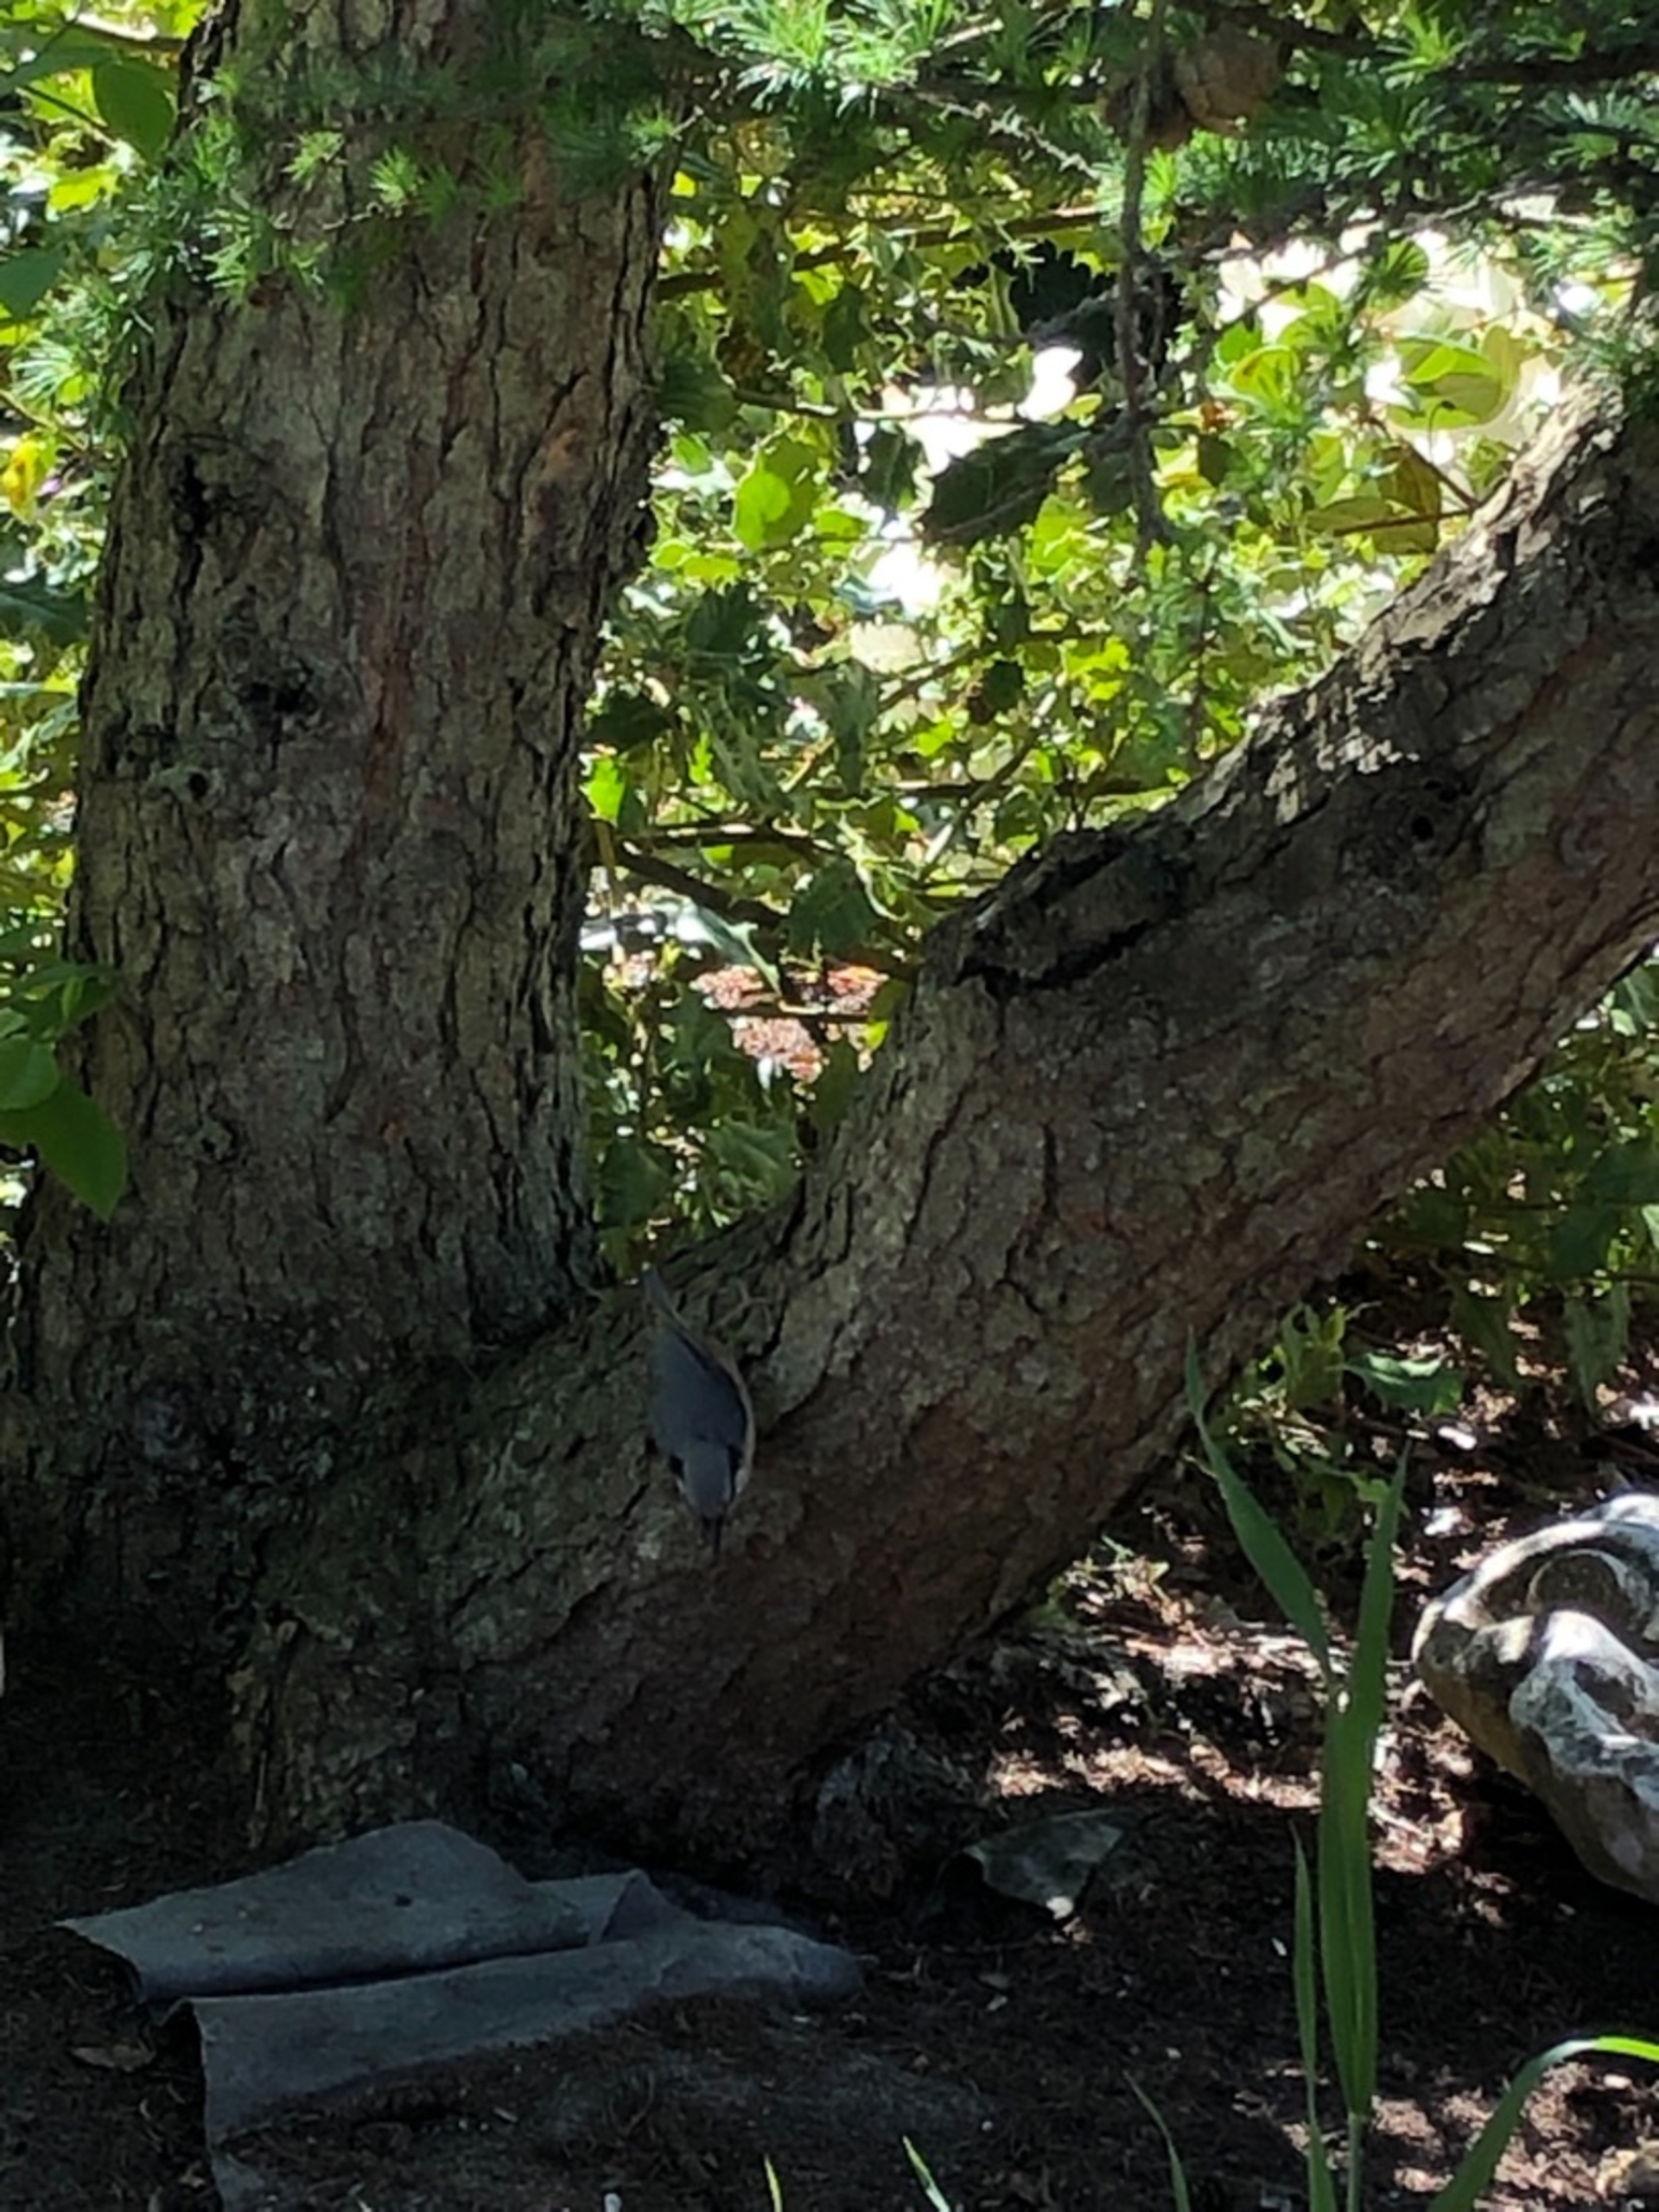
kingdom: Animalia
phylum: Chordata
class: Aves
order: Passeriformes
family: Sittidae
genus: Sitta
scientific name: Sitta europaea
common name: Spætmejse
